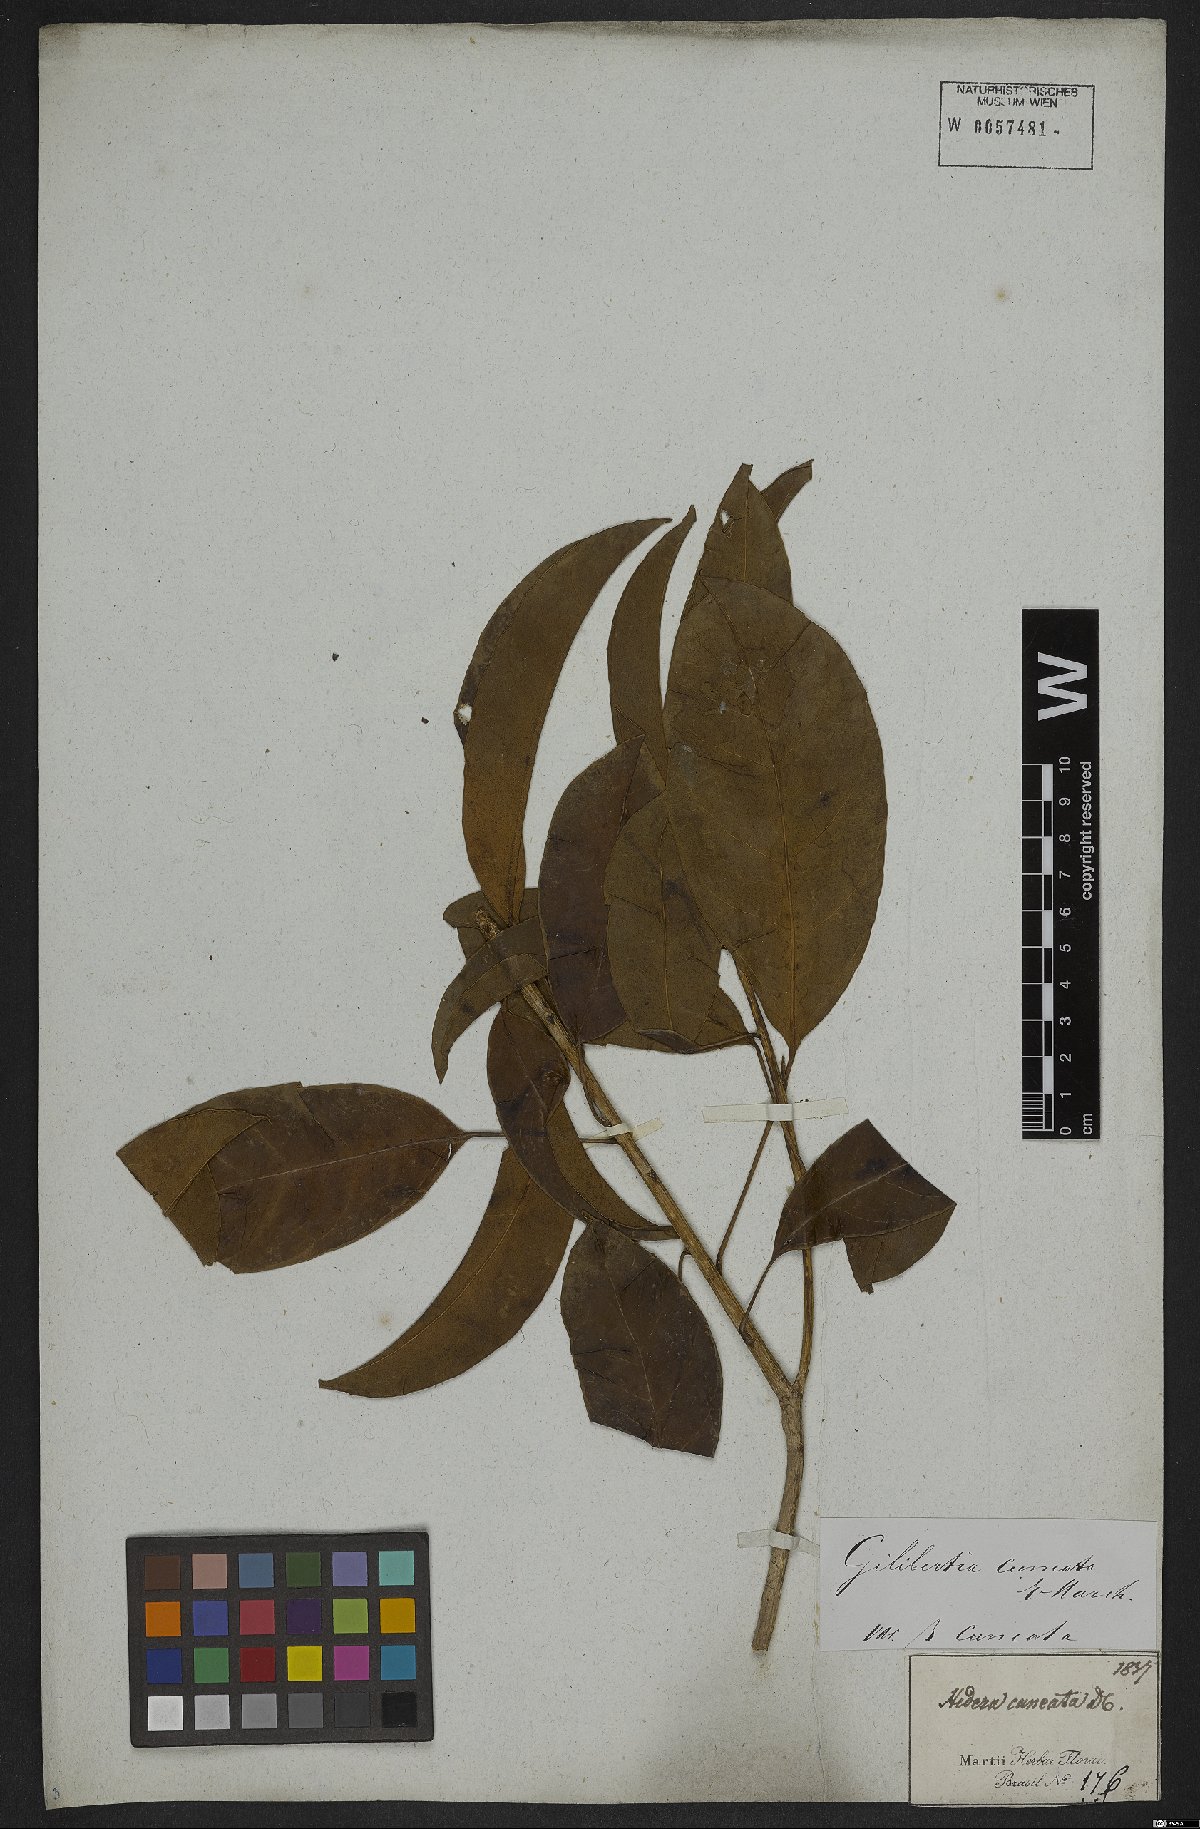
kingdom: Plantae
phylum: Tracheophyta
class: Magnoliopsida
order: Apiales
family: Araliaceae
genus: Dendropanax
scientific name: Dendropanax cuneatus
